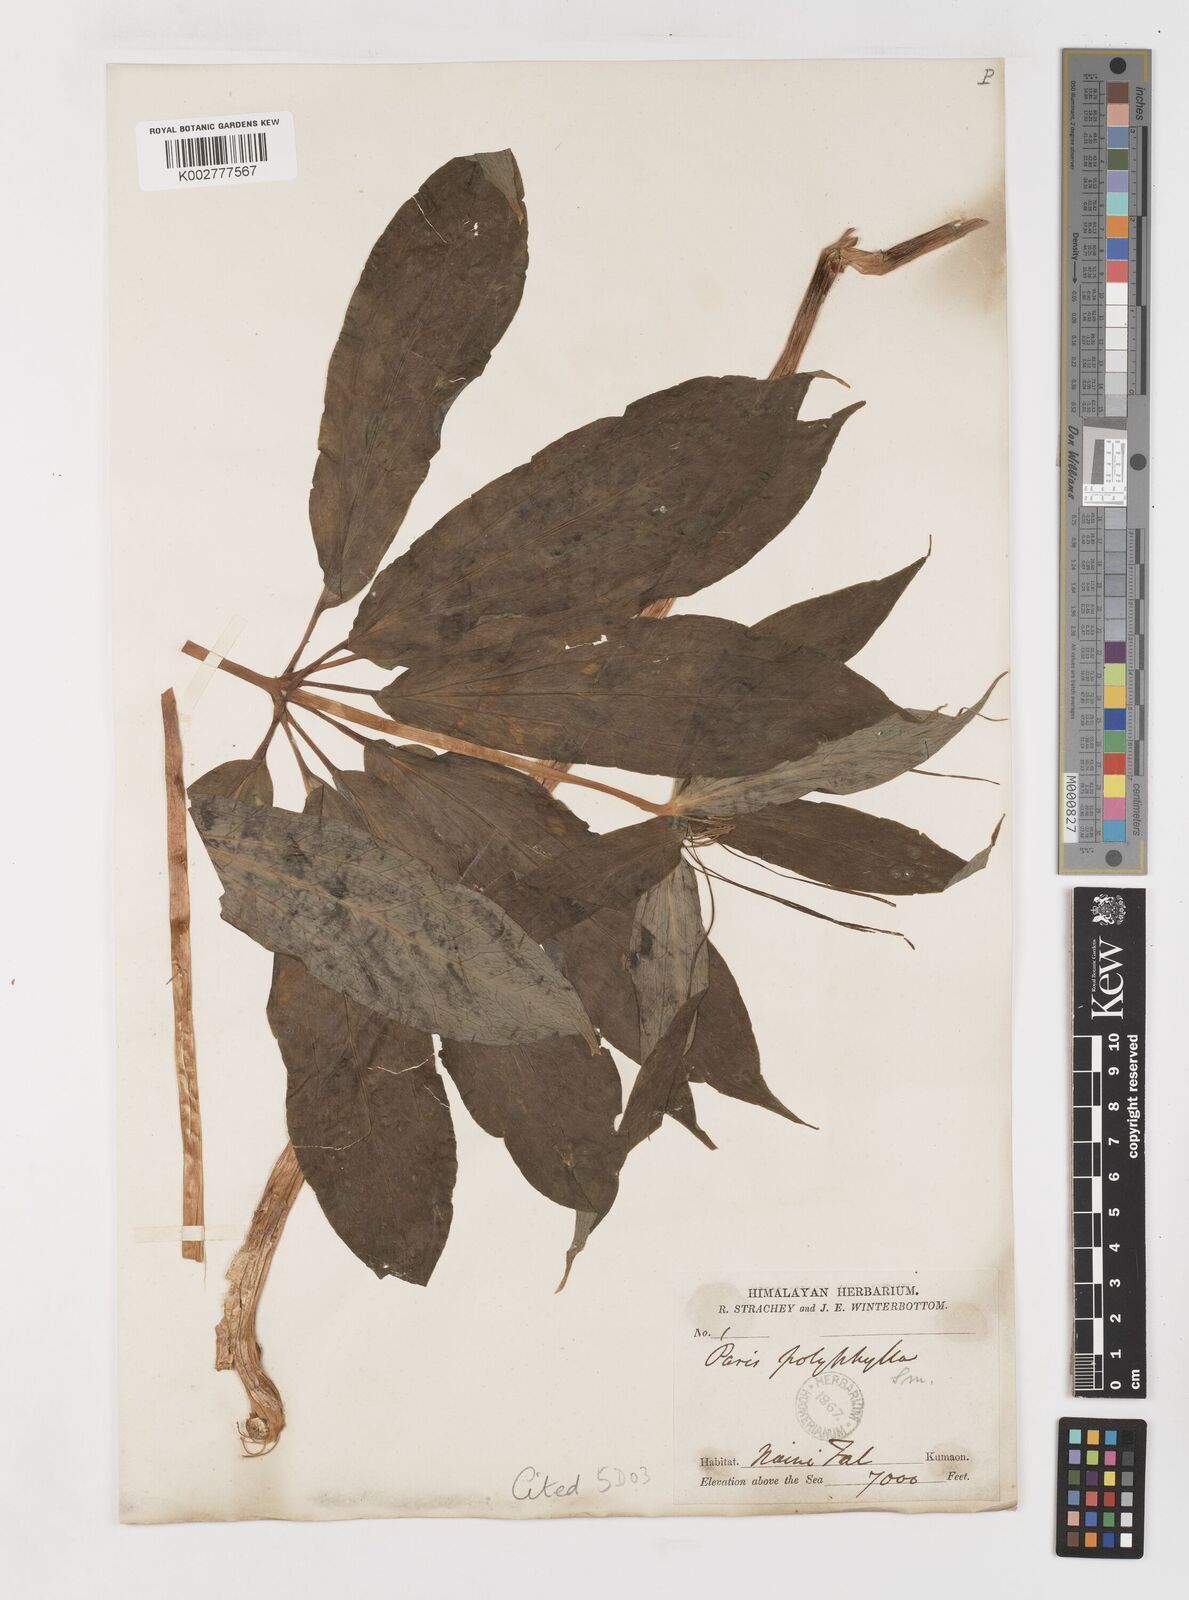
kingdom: Plantae
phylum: Tracheophyta
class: Liliopsida
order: Liliales
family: Melanthiaceae
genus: Paris
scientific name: Paris polyphylla
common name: Love apple
